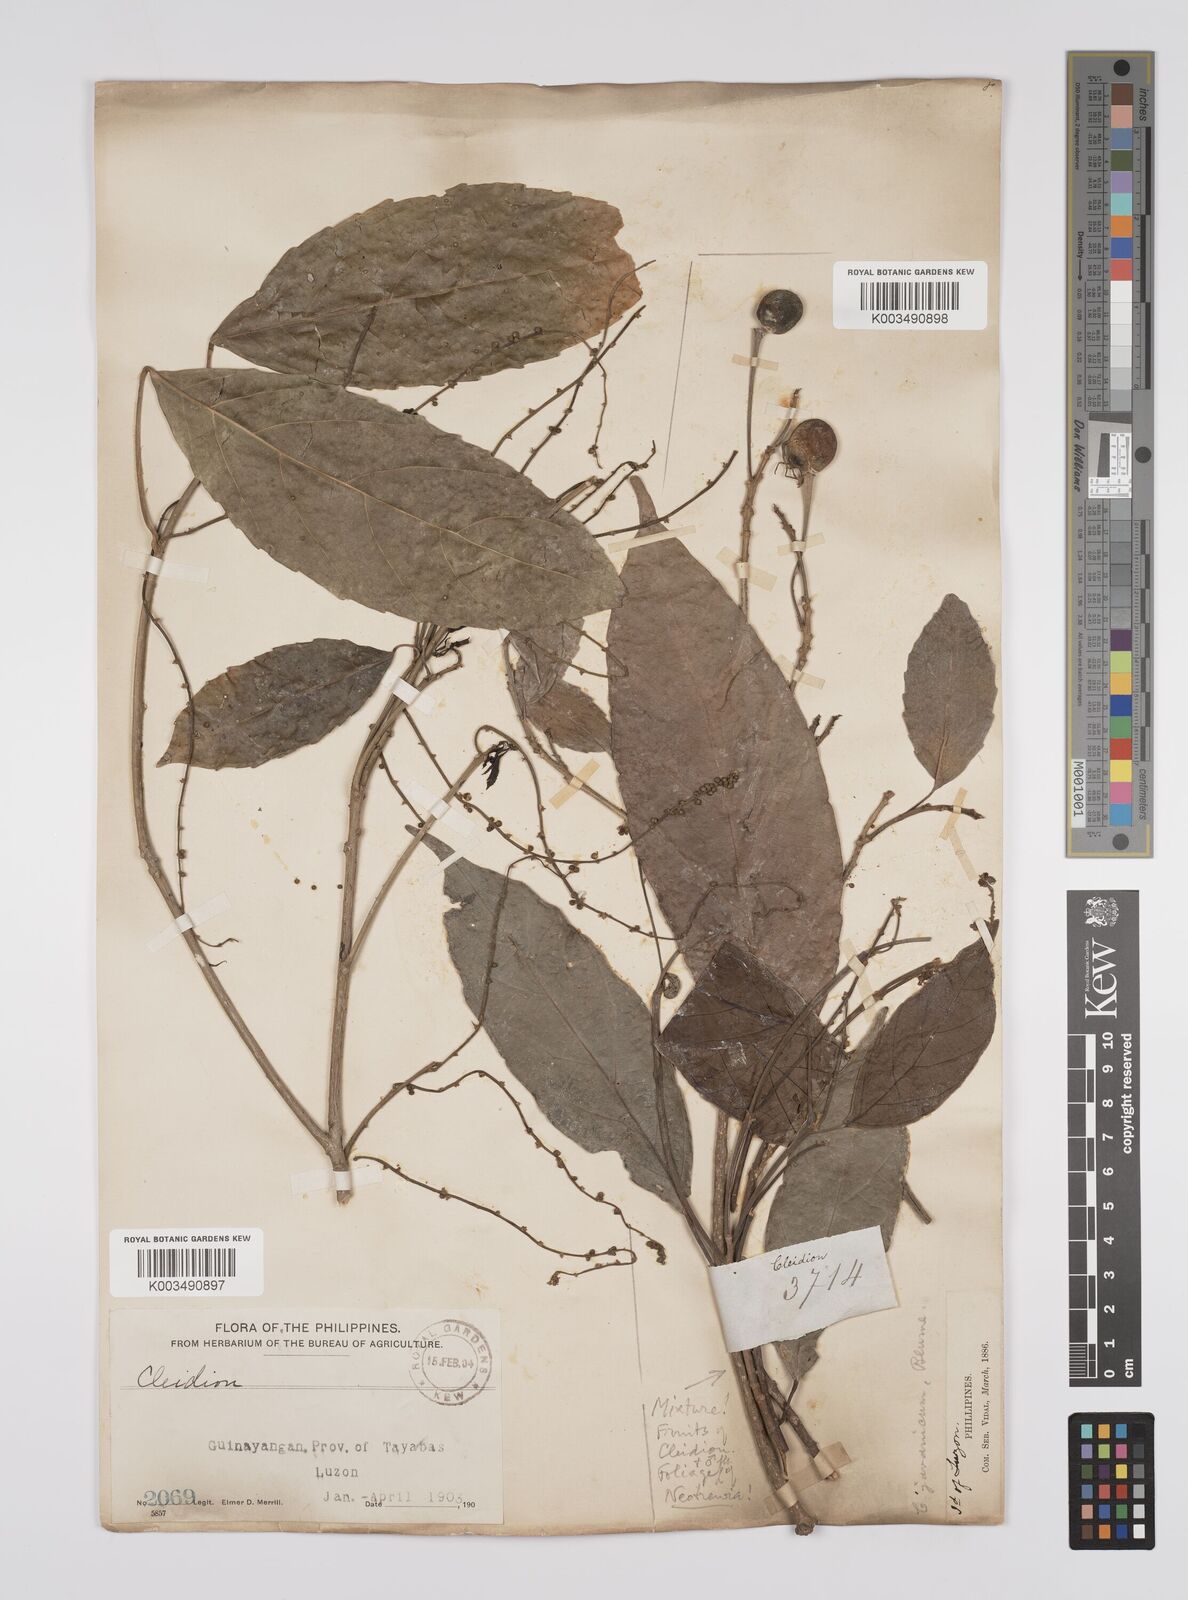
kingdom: Plantae
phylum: Tracheophyta
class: Magnoliopsida
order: Malpighiales
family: Euphorbiaceae
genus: Cleidion
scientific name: Cleidion javanicum
